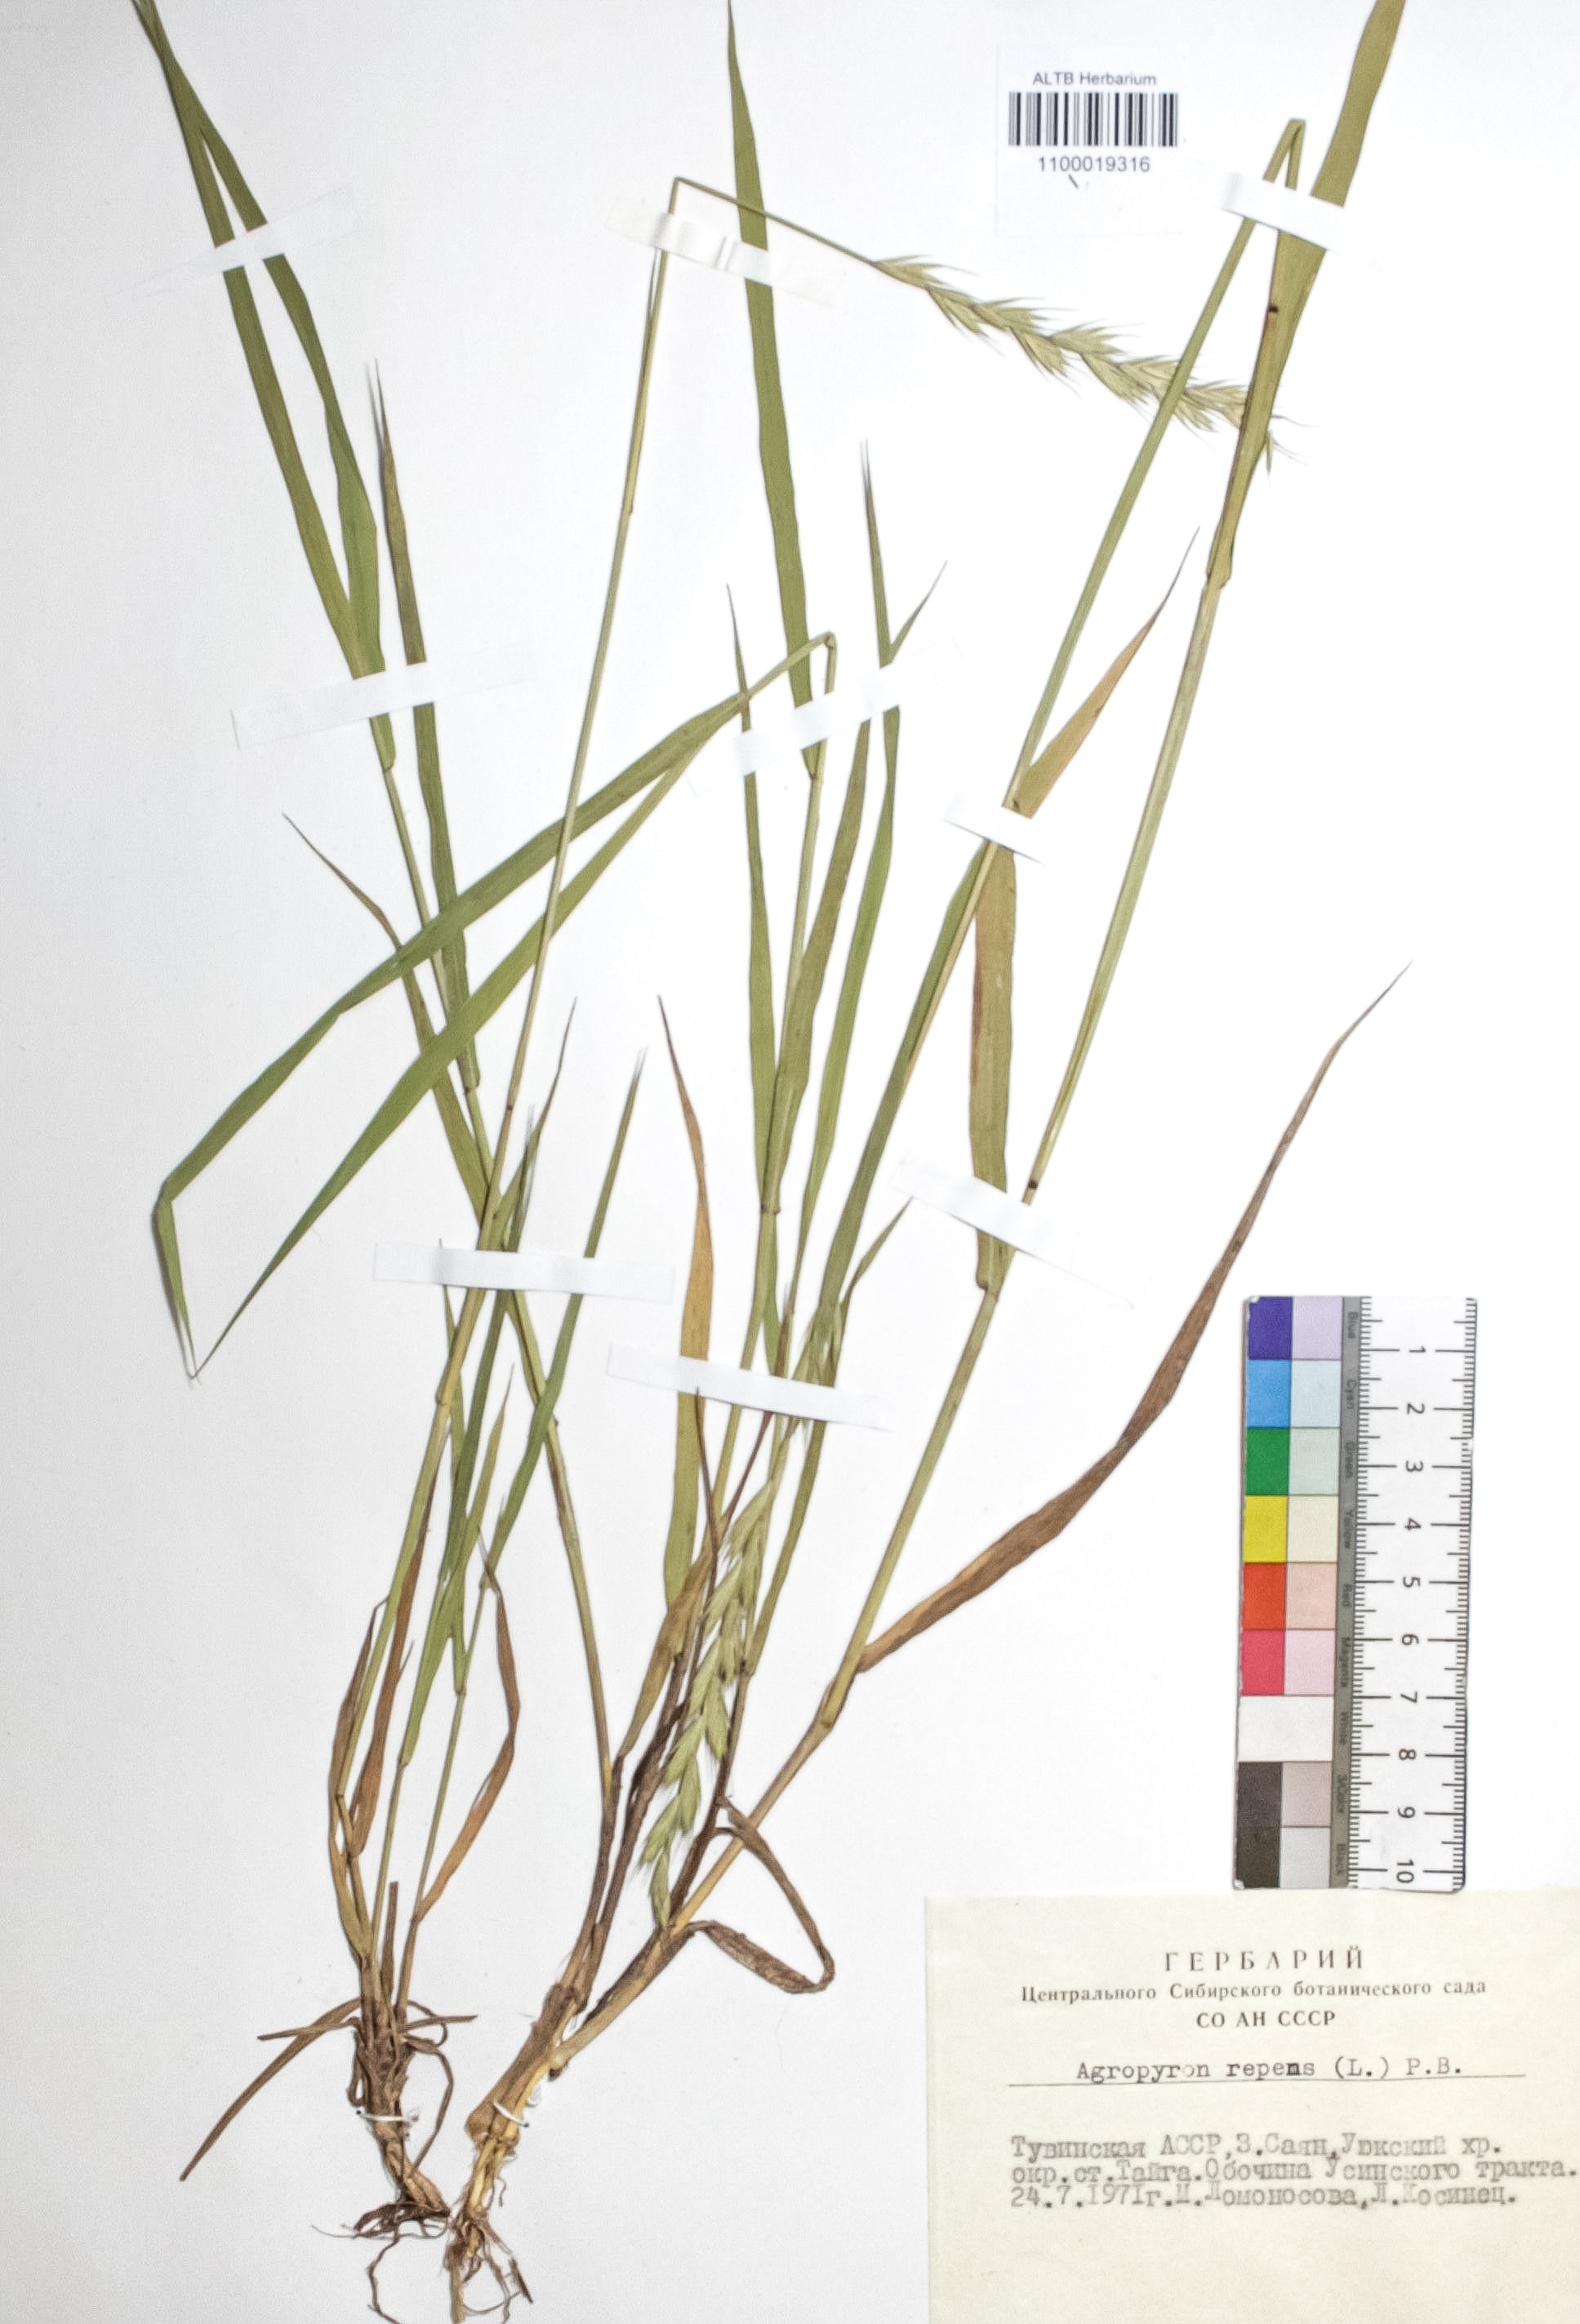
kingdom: Plantae
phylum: Tracheophyta
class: Liliopsida
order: Poales
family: Poaceae
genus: Elymus
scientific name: Elymus repens
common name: Quackgrass
